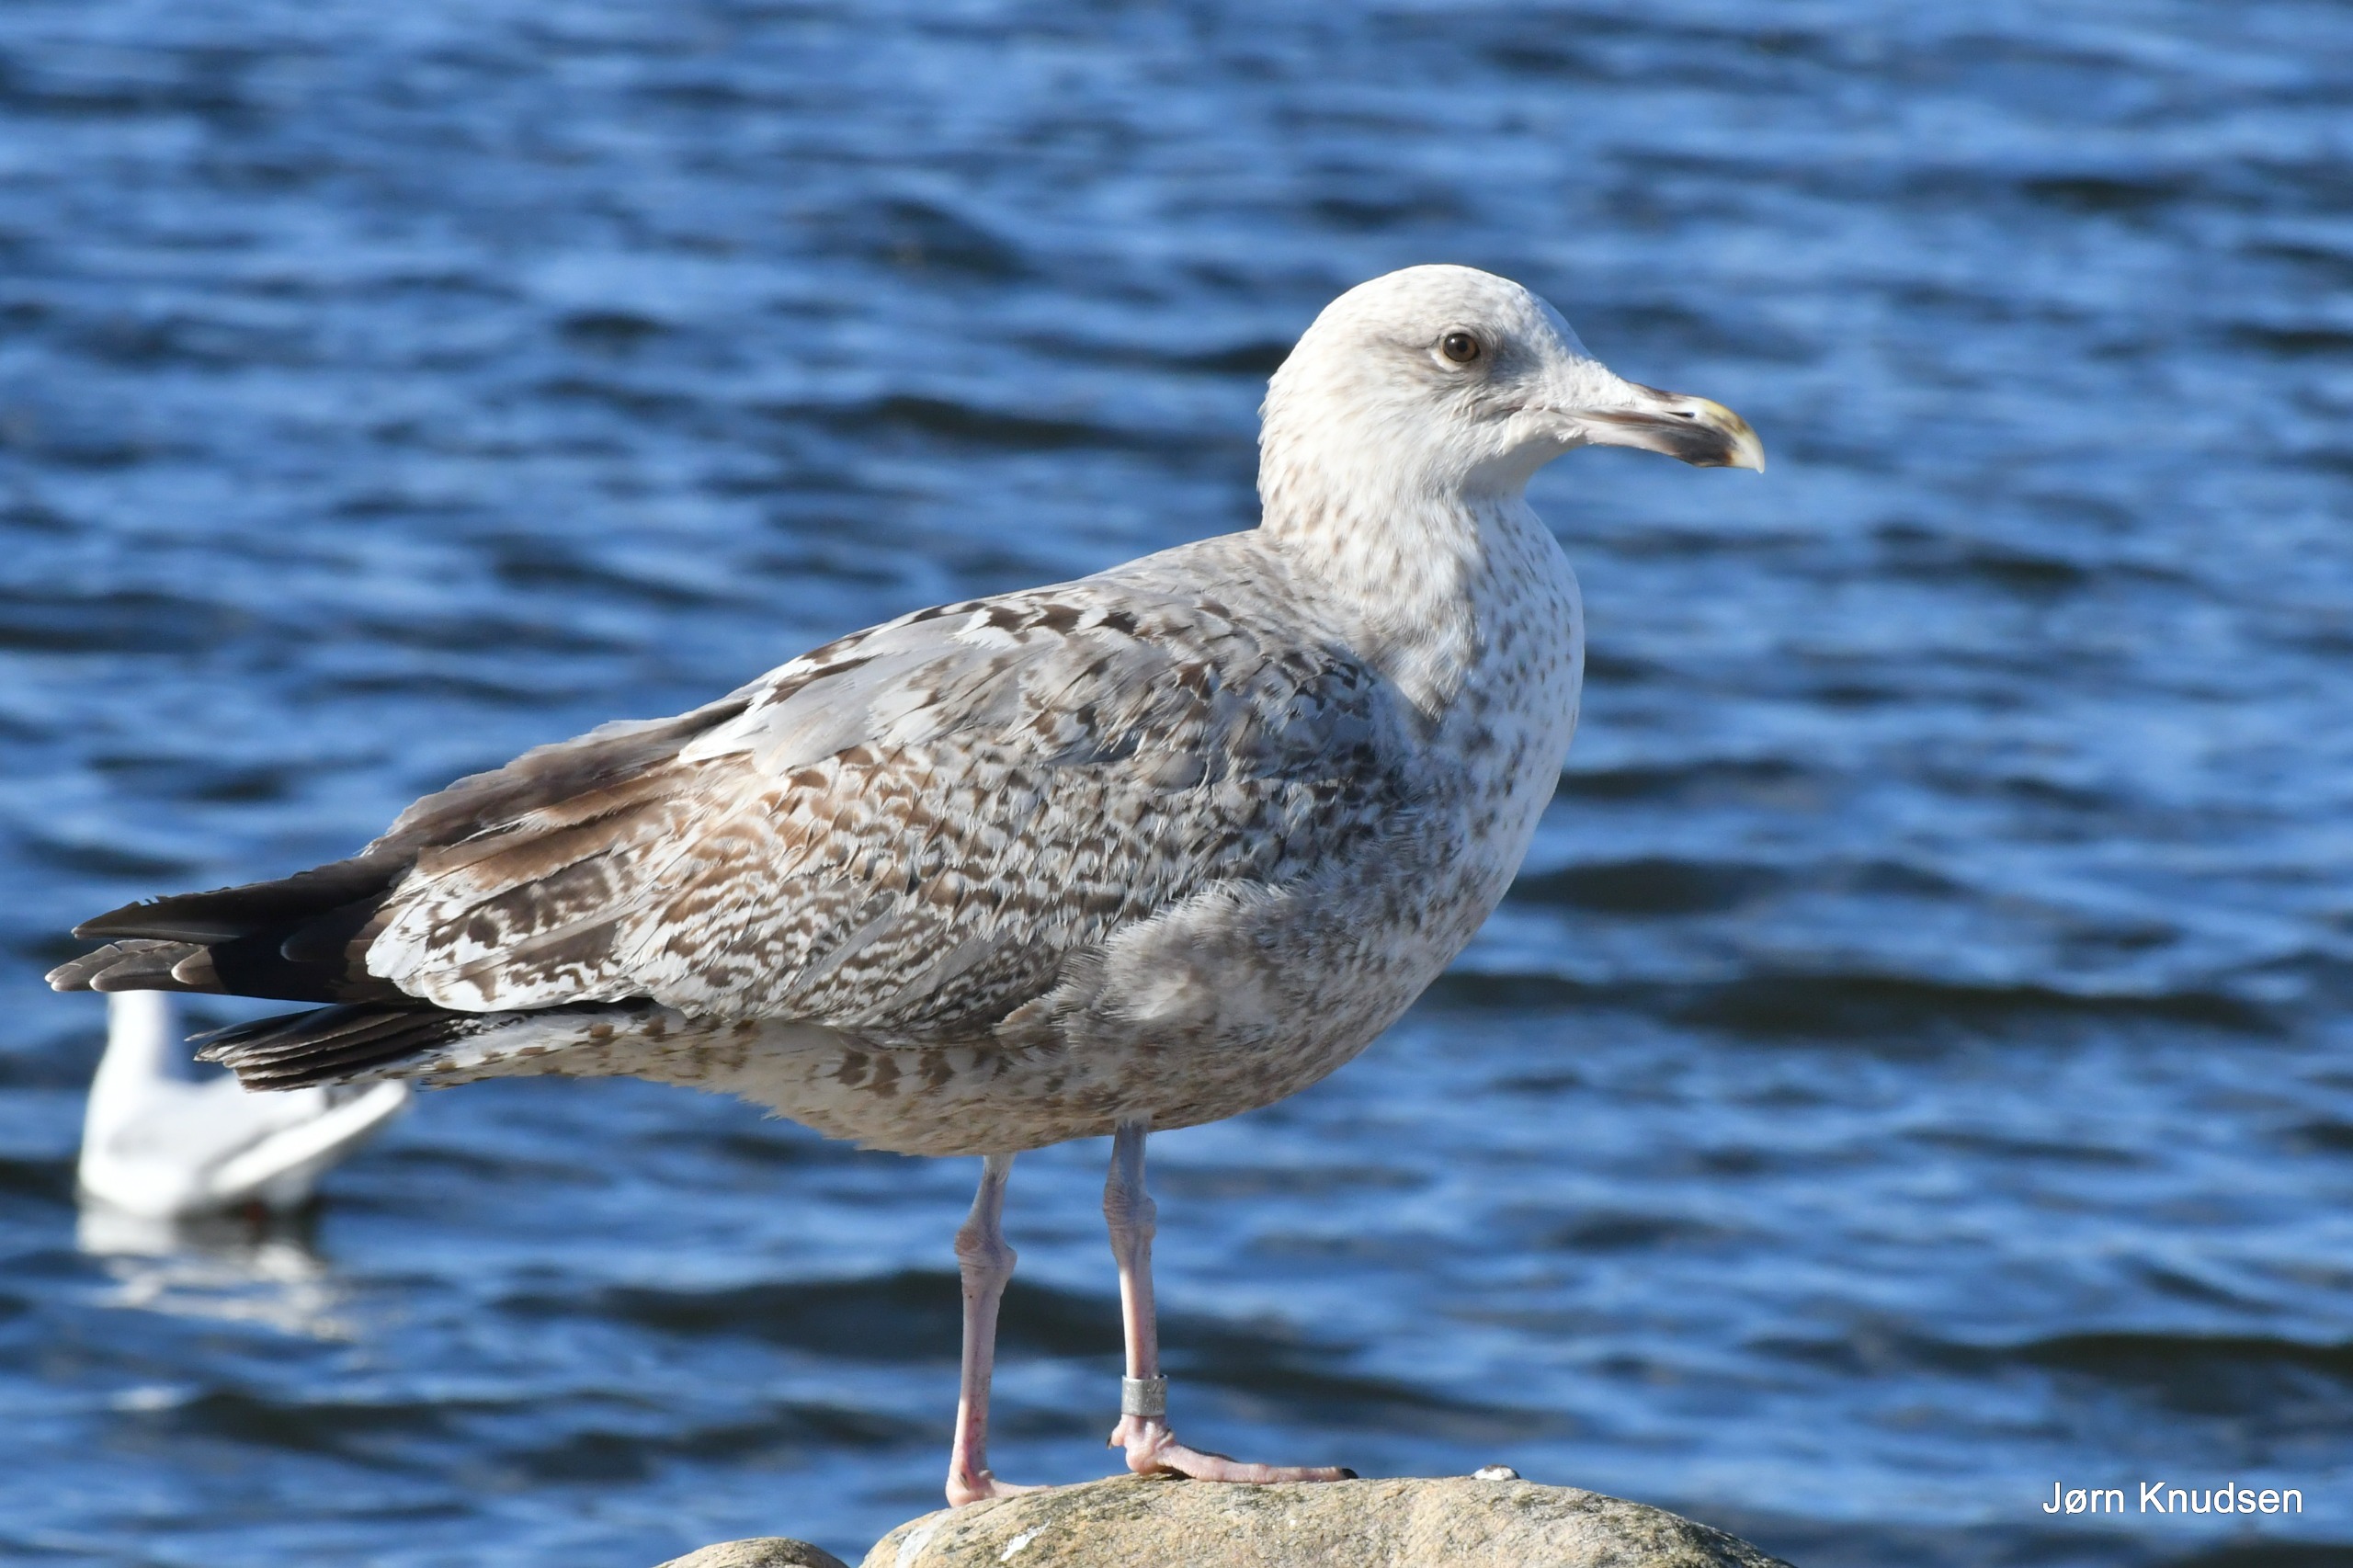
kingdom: Animalia
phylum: Chordata
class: Aves
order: Charadriiformes
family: Laridae
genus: Larus
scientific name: Larus argentatus
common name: Sølvmåge
